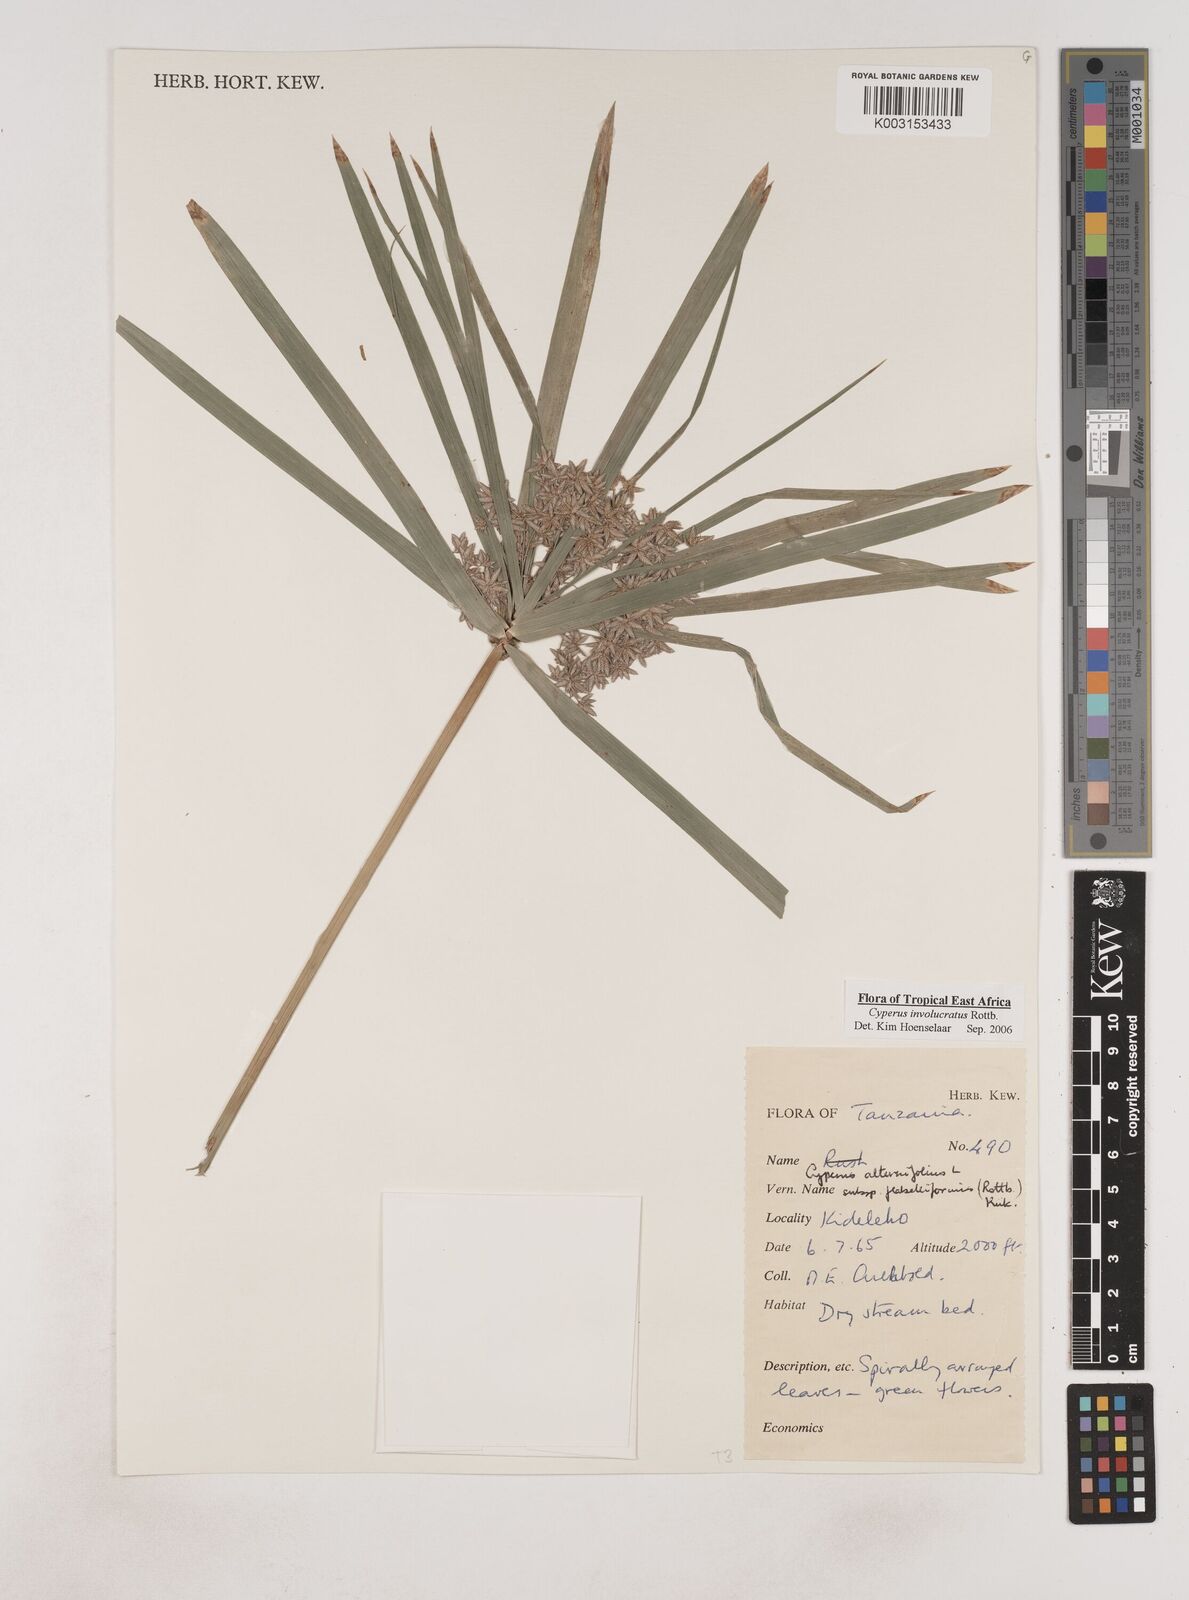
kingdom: Plantae
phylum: Tracheophyta
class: Liliopsida
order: Poales
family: Cyperaceae
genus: Cyperus
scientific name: Cyperus
